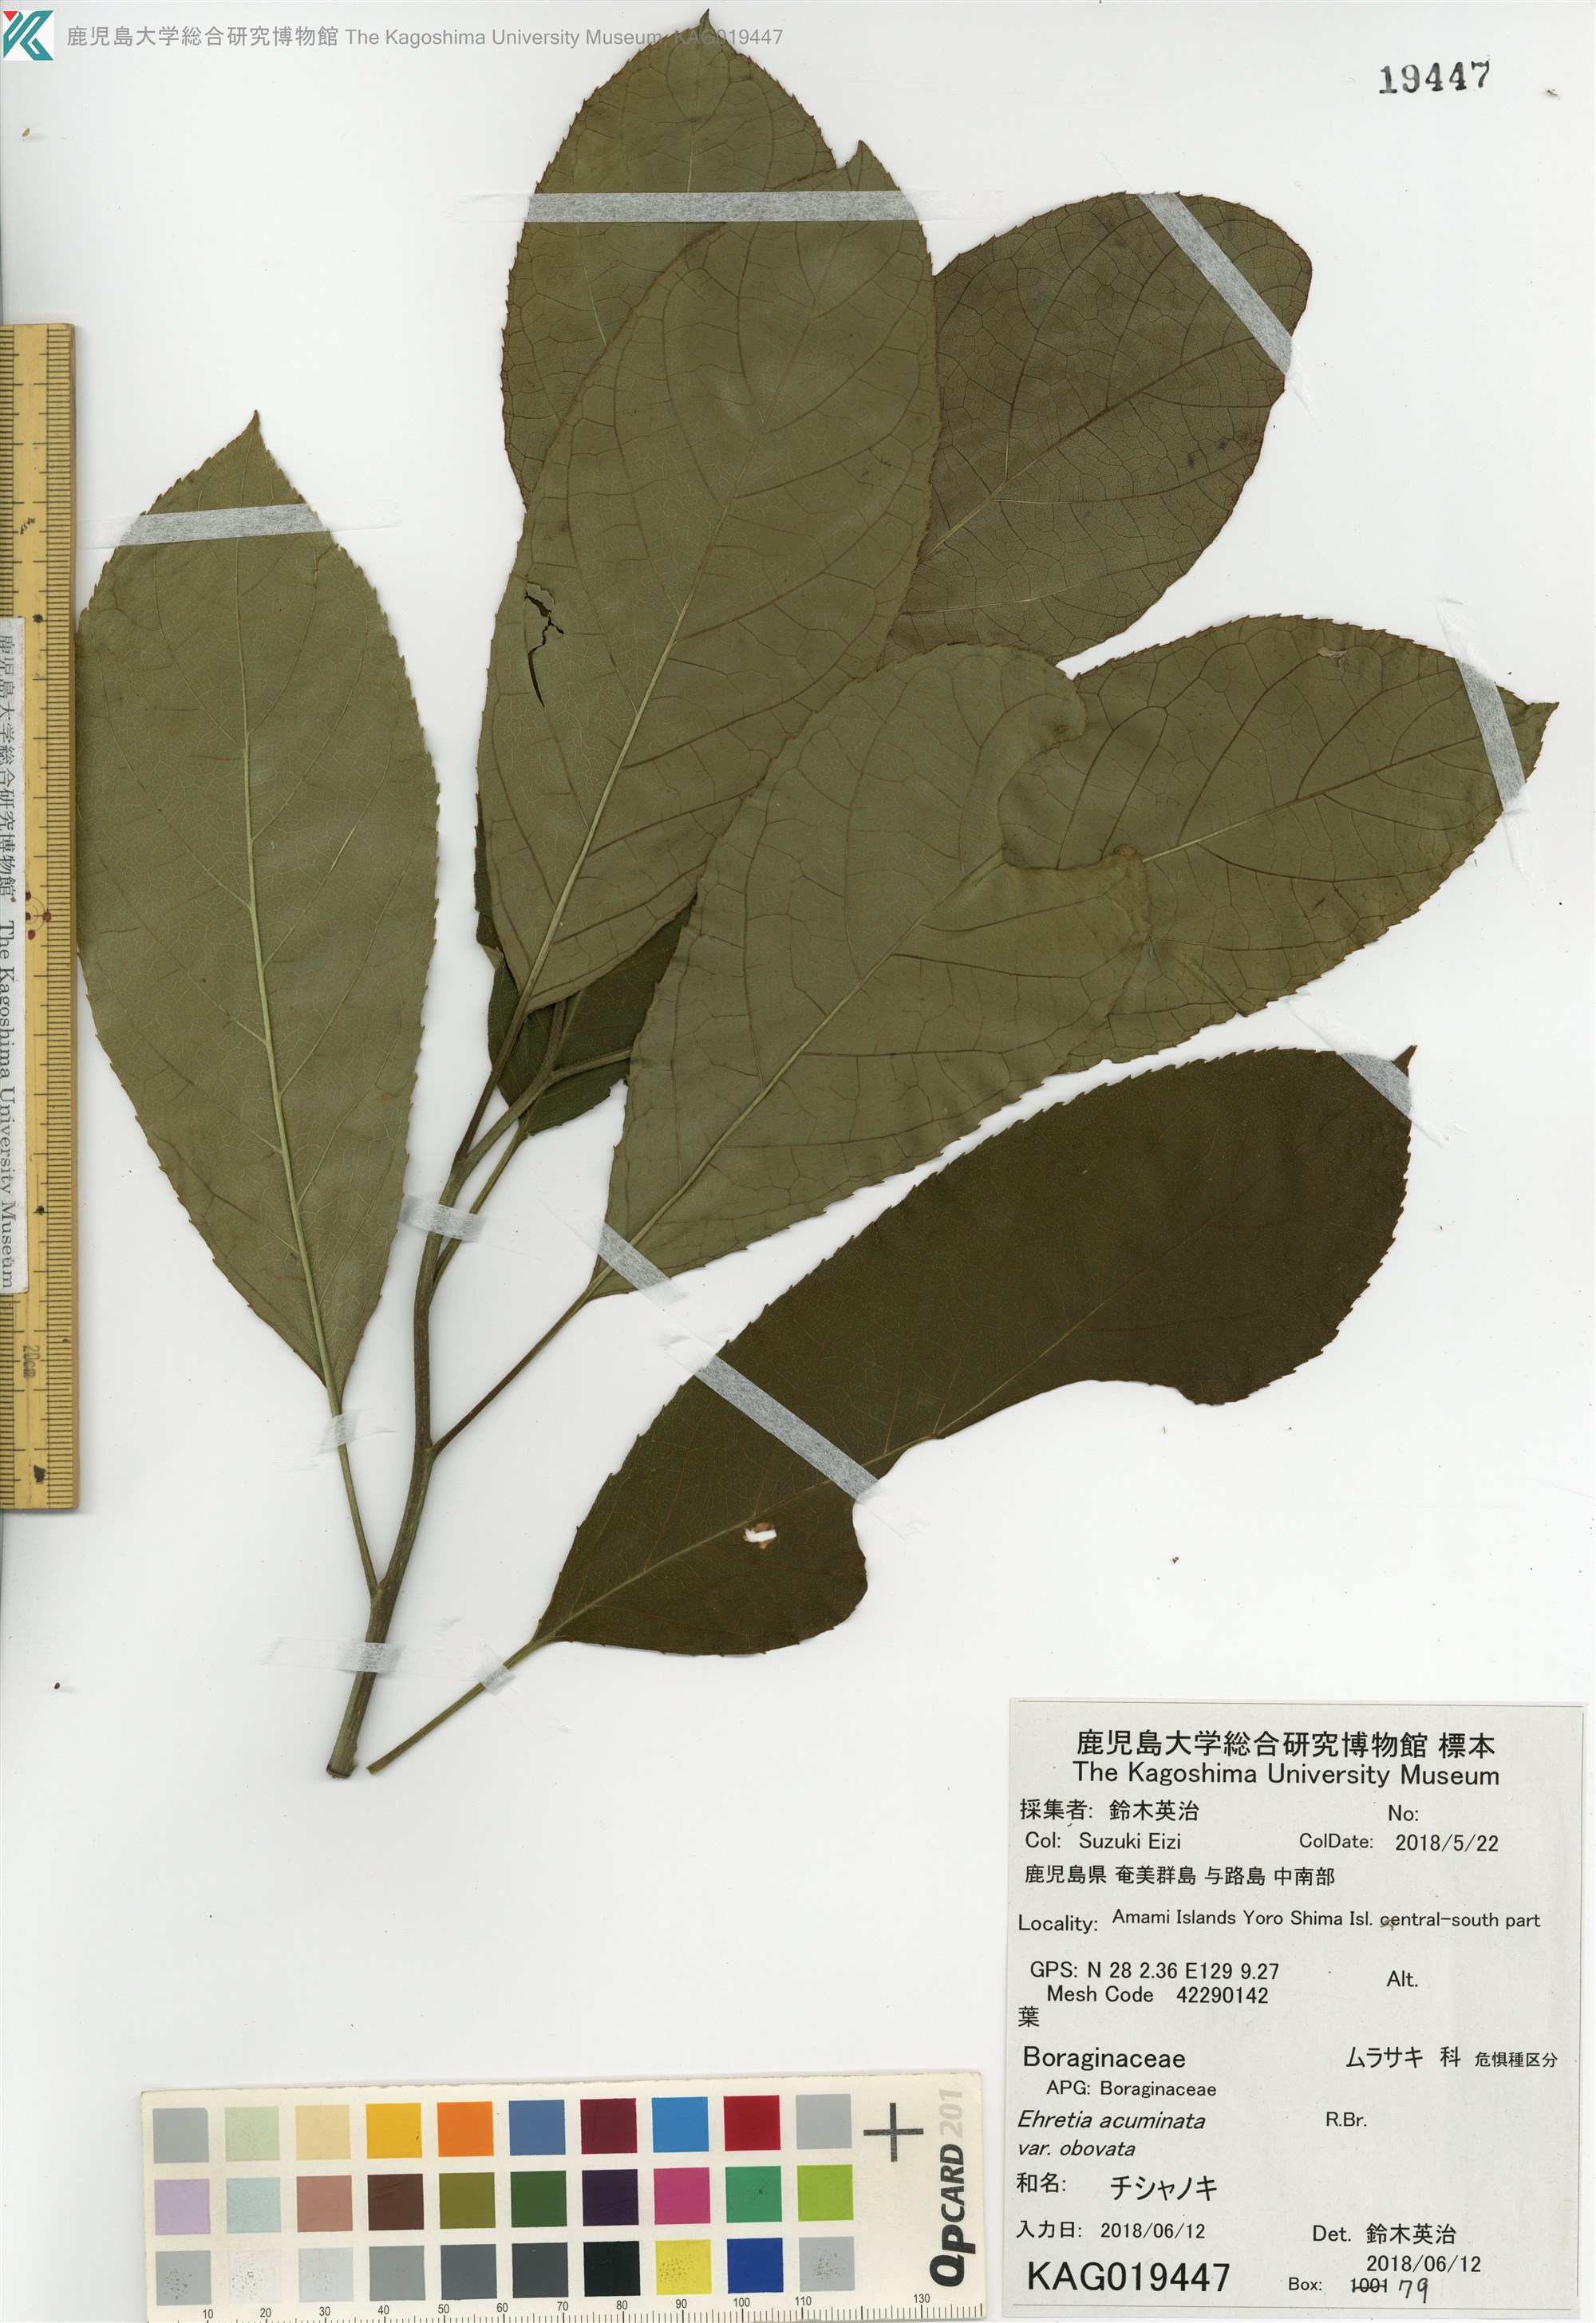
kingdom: Plantae
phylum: Tracheophyta
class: Magnoliopsida
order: Boraginales
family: Ehretiaceae
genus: Ehretia
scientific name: Ehretia acuminata
